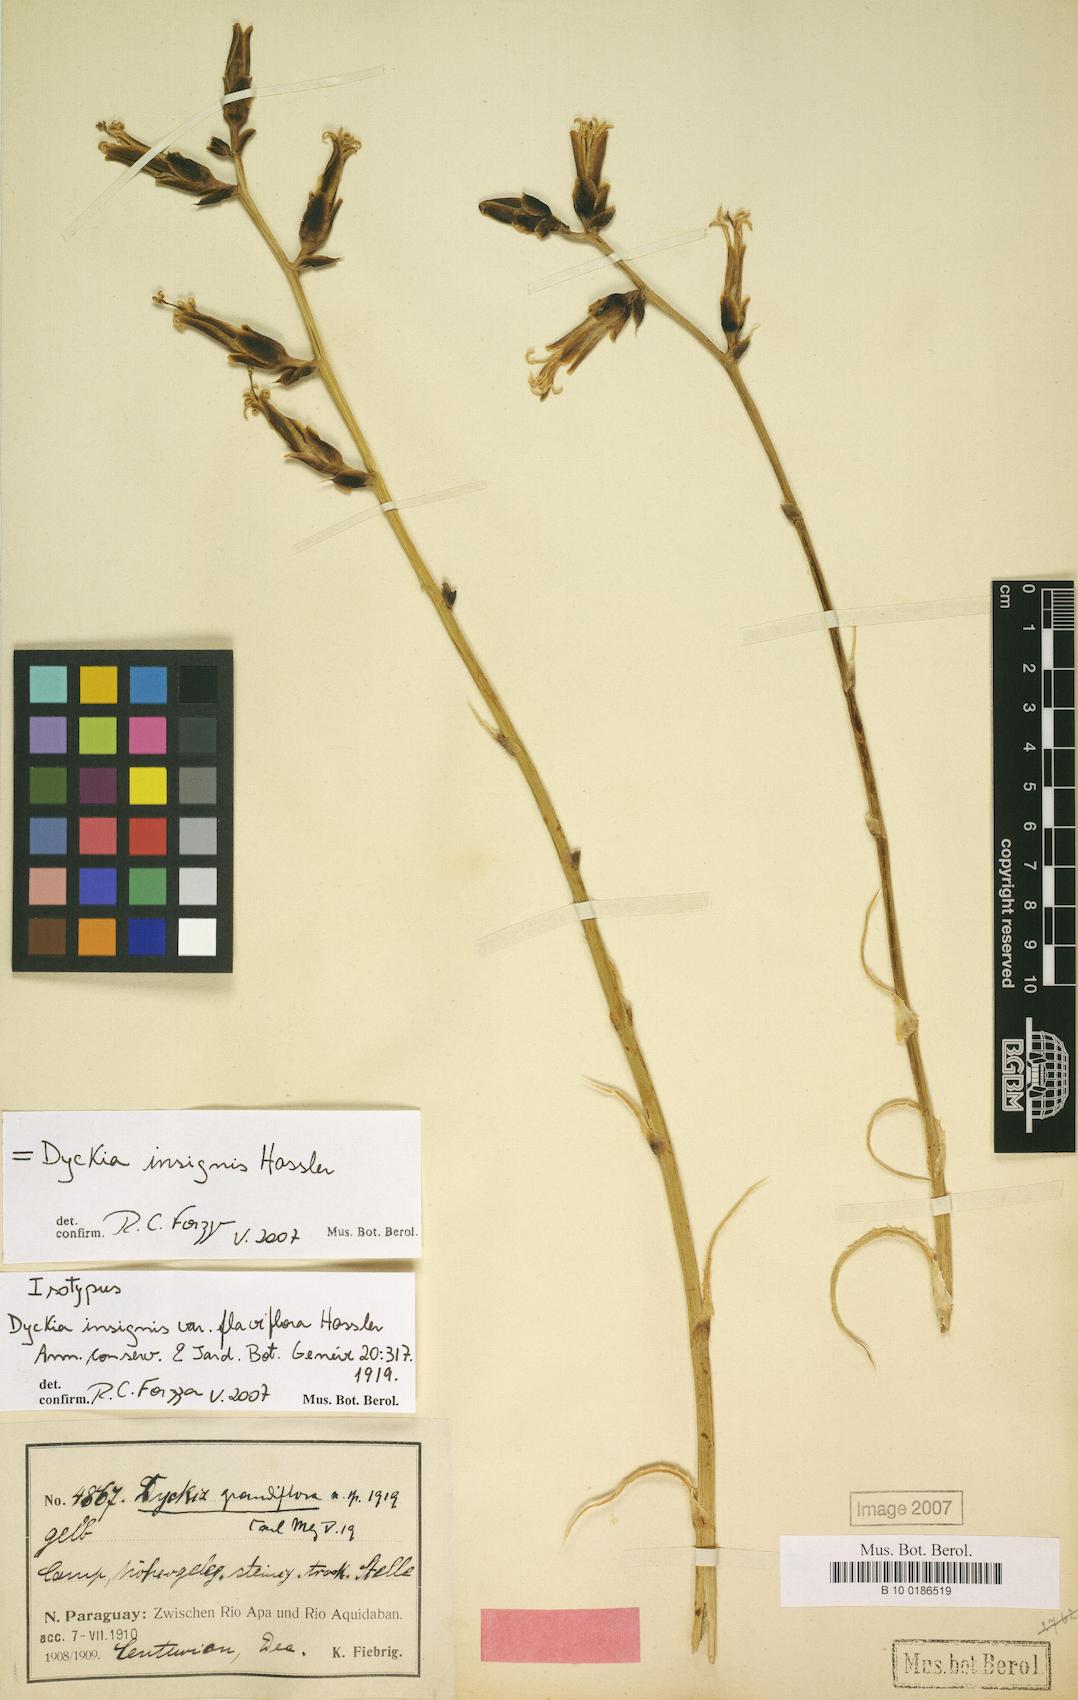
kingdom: Plantae
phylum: Tracheophyta
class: Liliopsida
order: Poales
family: Bromeliaceae
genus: Dyckia
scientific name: Dyckia insignis
